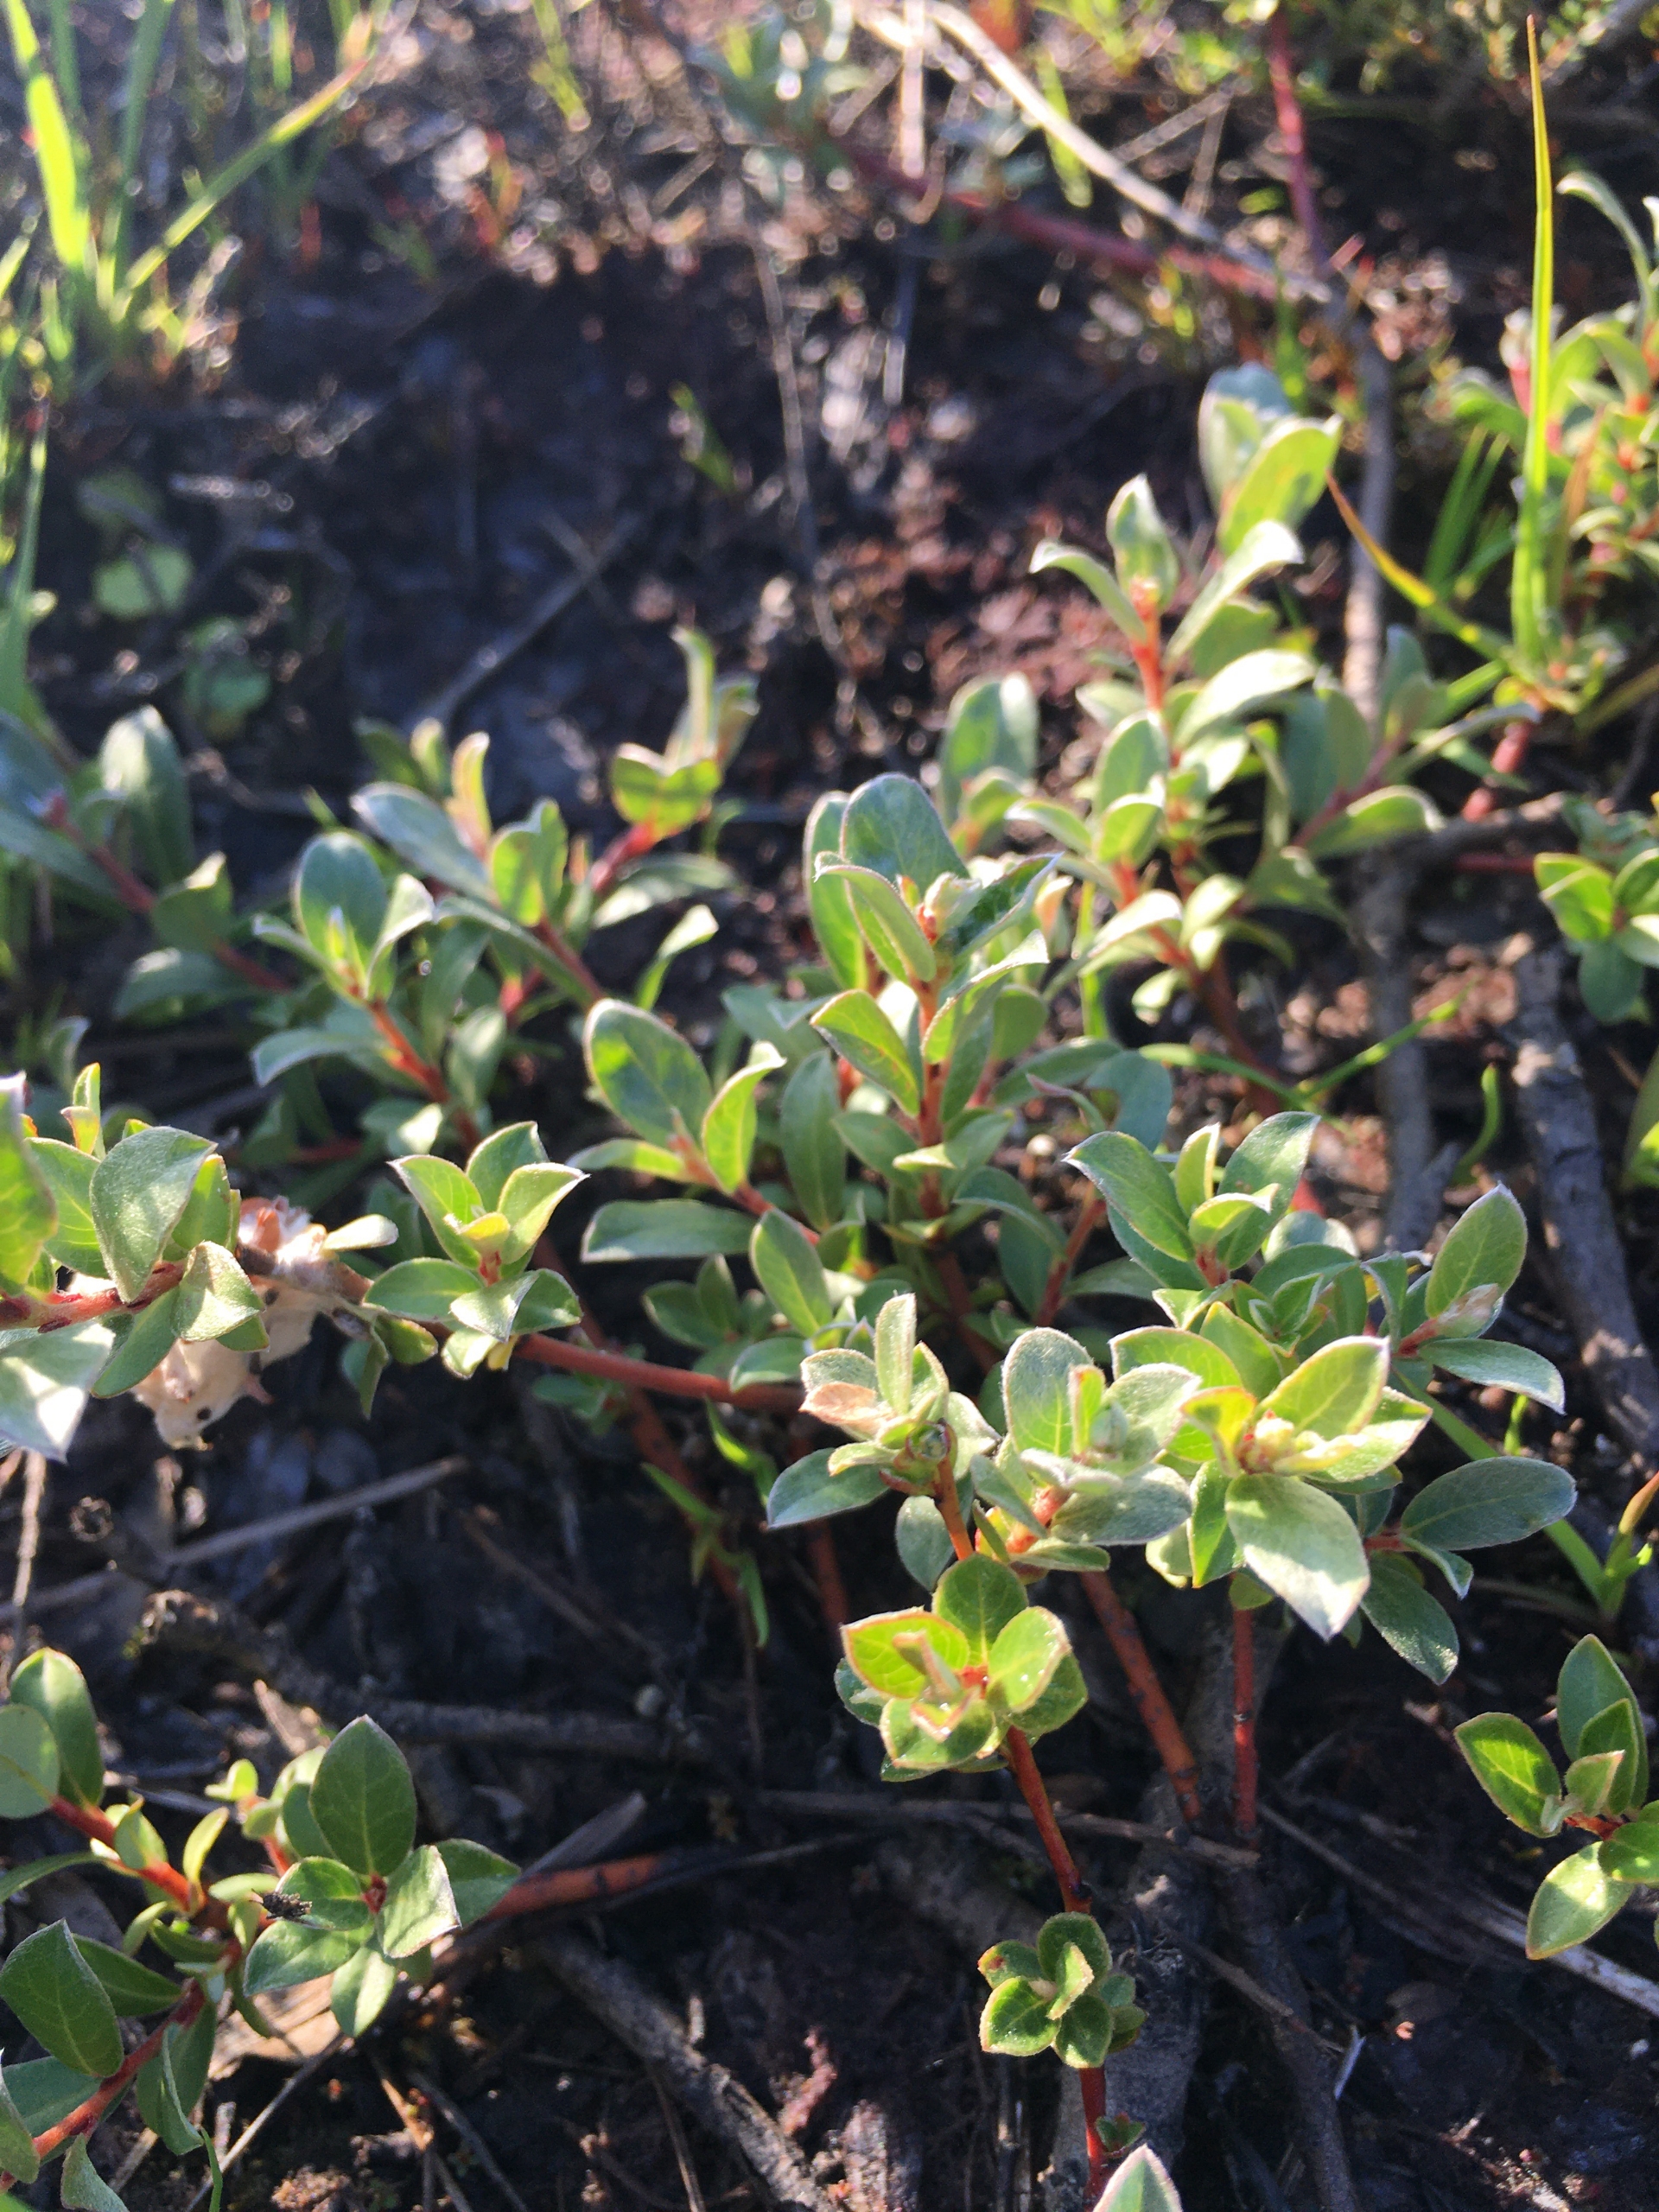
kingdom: Plantae
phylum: Tracheophyta
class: Magnoliopsida
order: Malpighiales
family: Salicaceae
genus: Salix
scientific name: Salix repens
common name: Gråris
